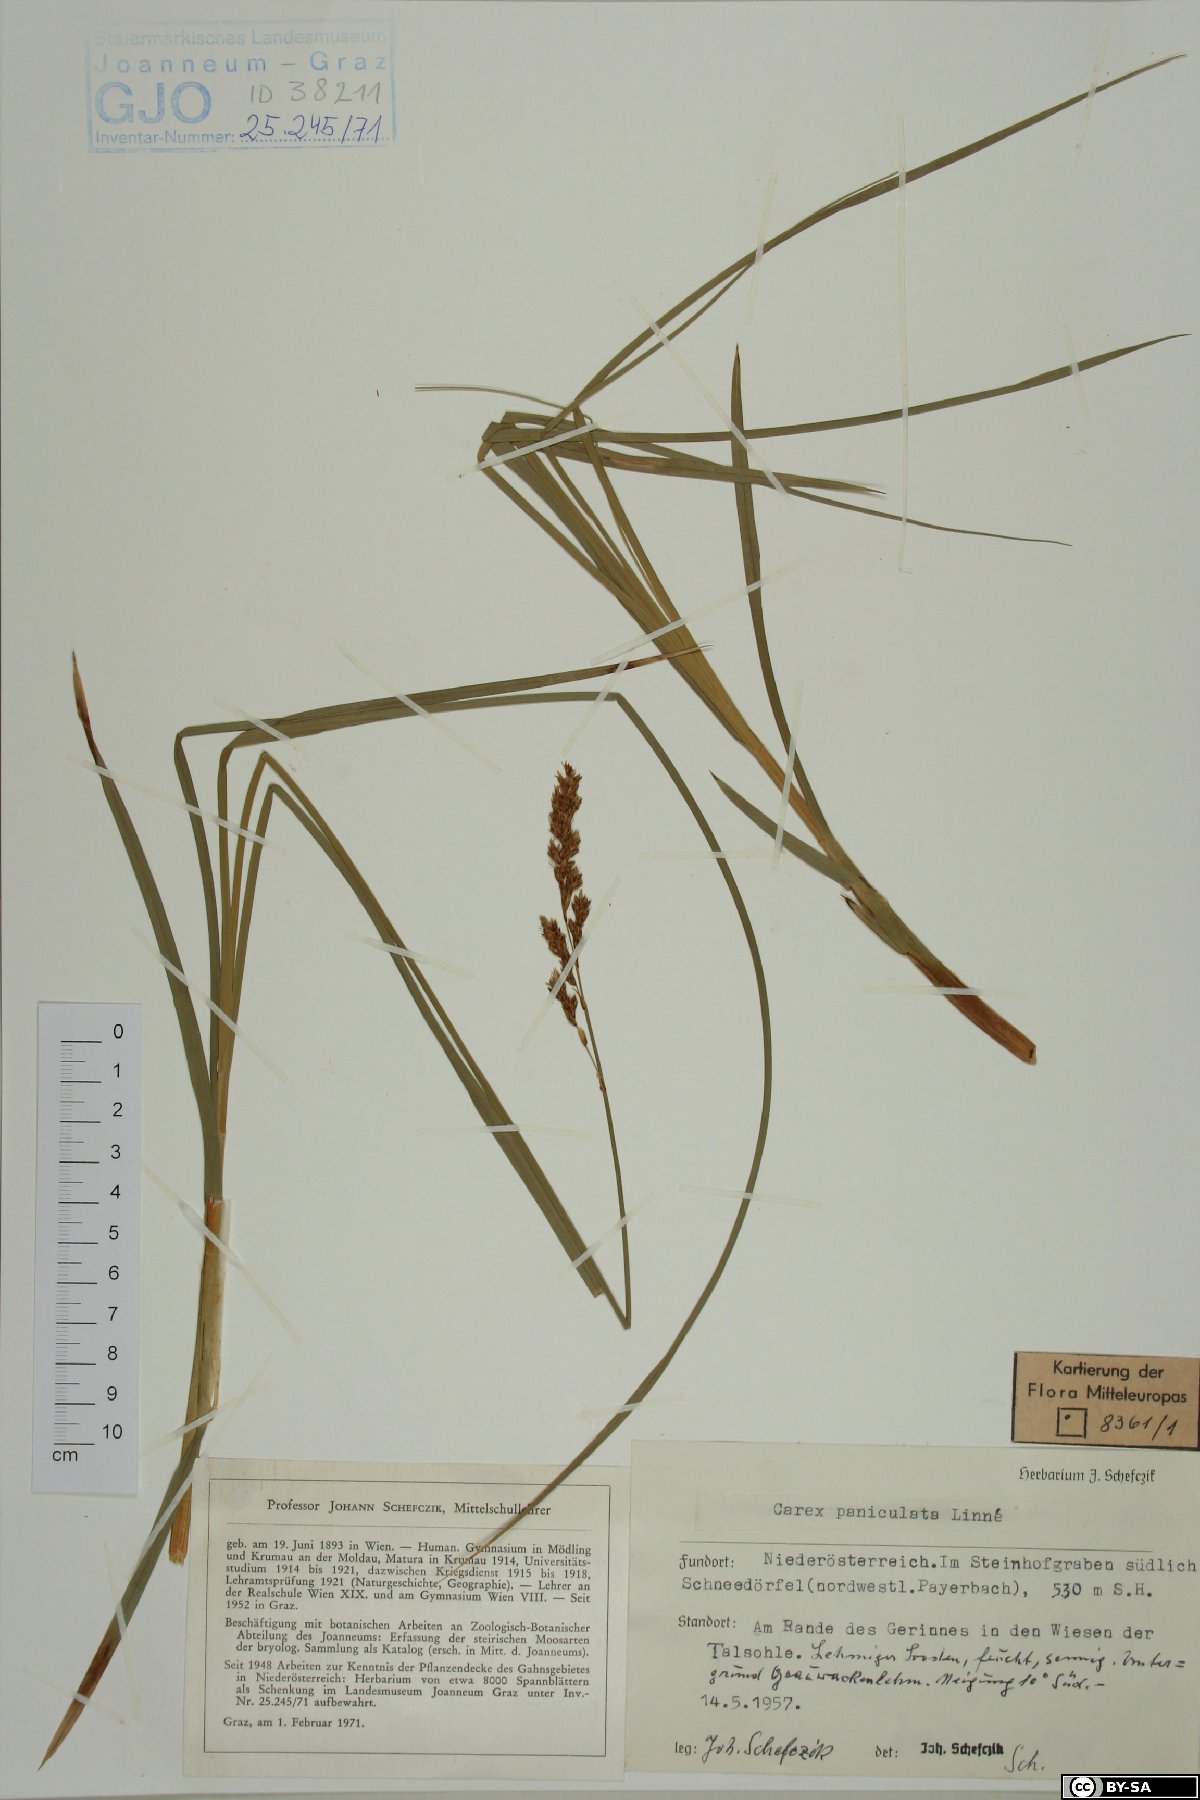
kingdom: Plantae
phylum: Tracheophyta
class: Liliopsida
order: Poales
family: Cyperaceae
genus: Carex
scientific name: Carex paniculata
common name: Greater tussock-sedge
